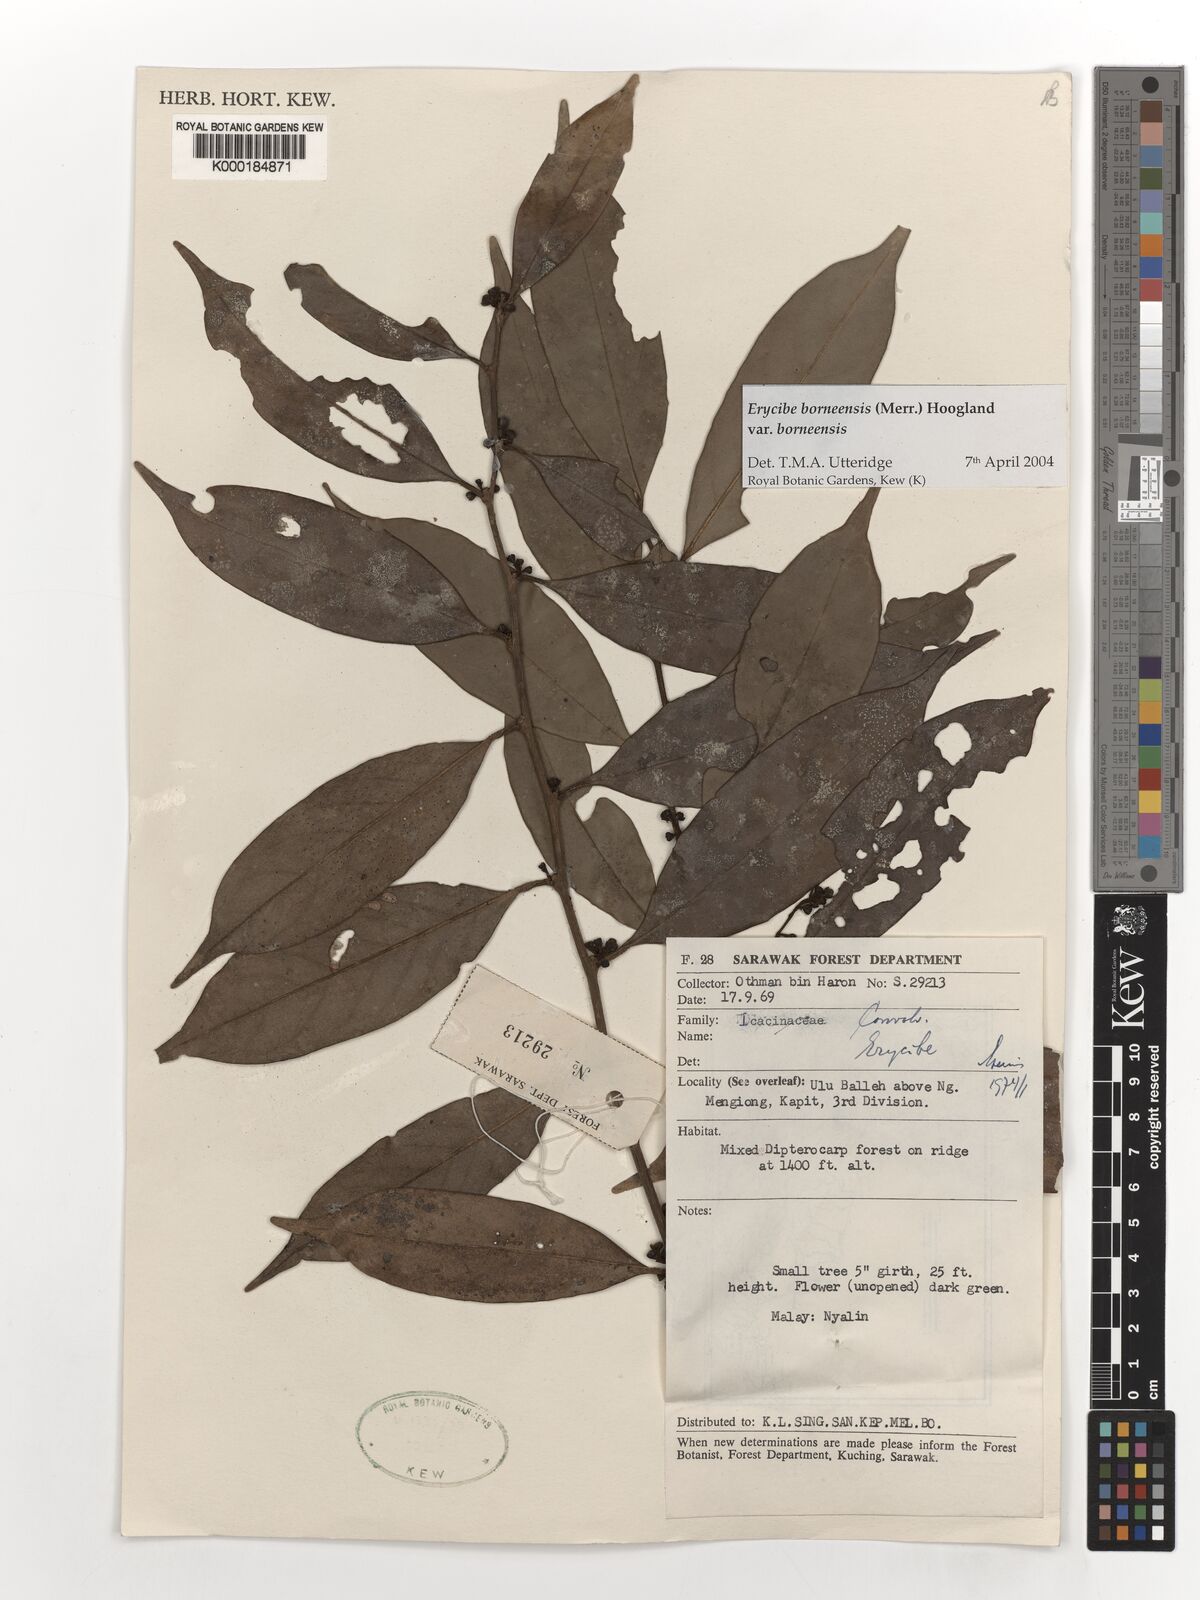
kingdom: Plantae
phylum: Tracheophyta
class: Magnoliopsida
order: Solanales
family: Convolvulaceae
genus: Erycibe
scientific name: Erycibe borneensis
